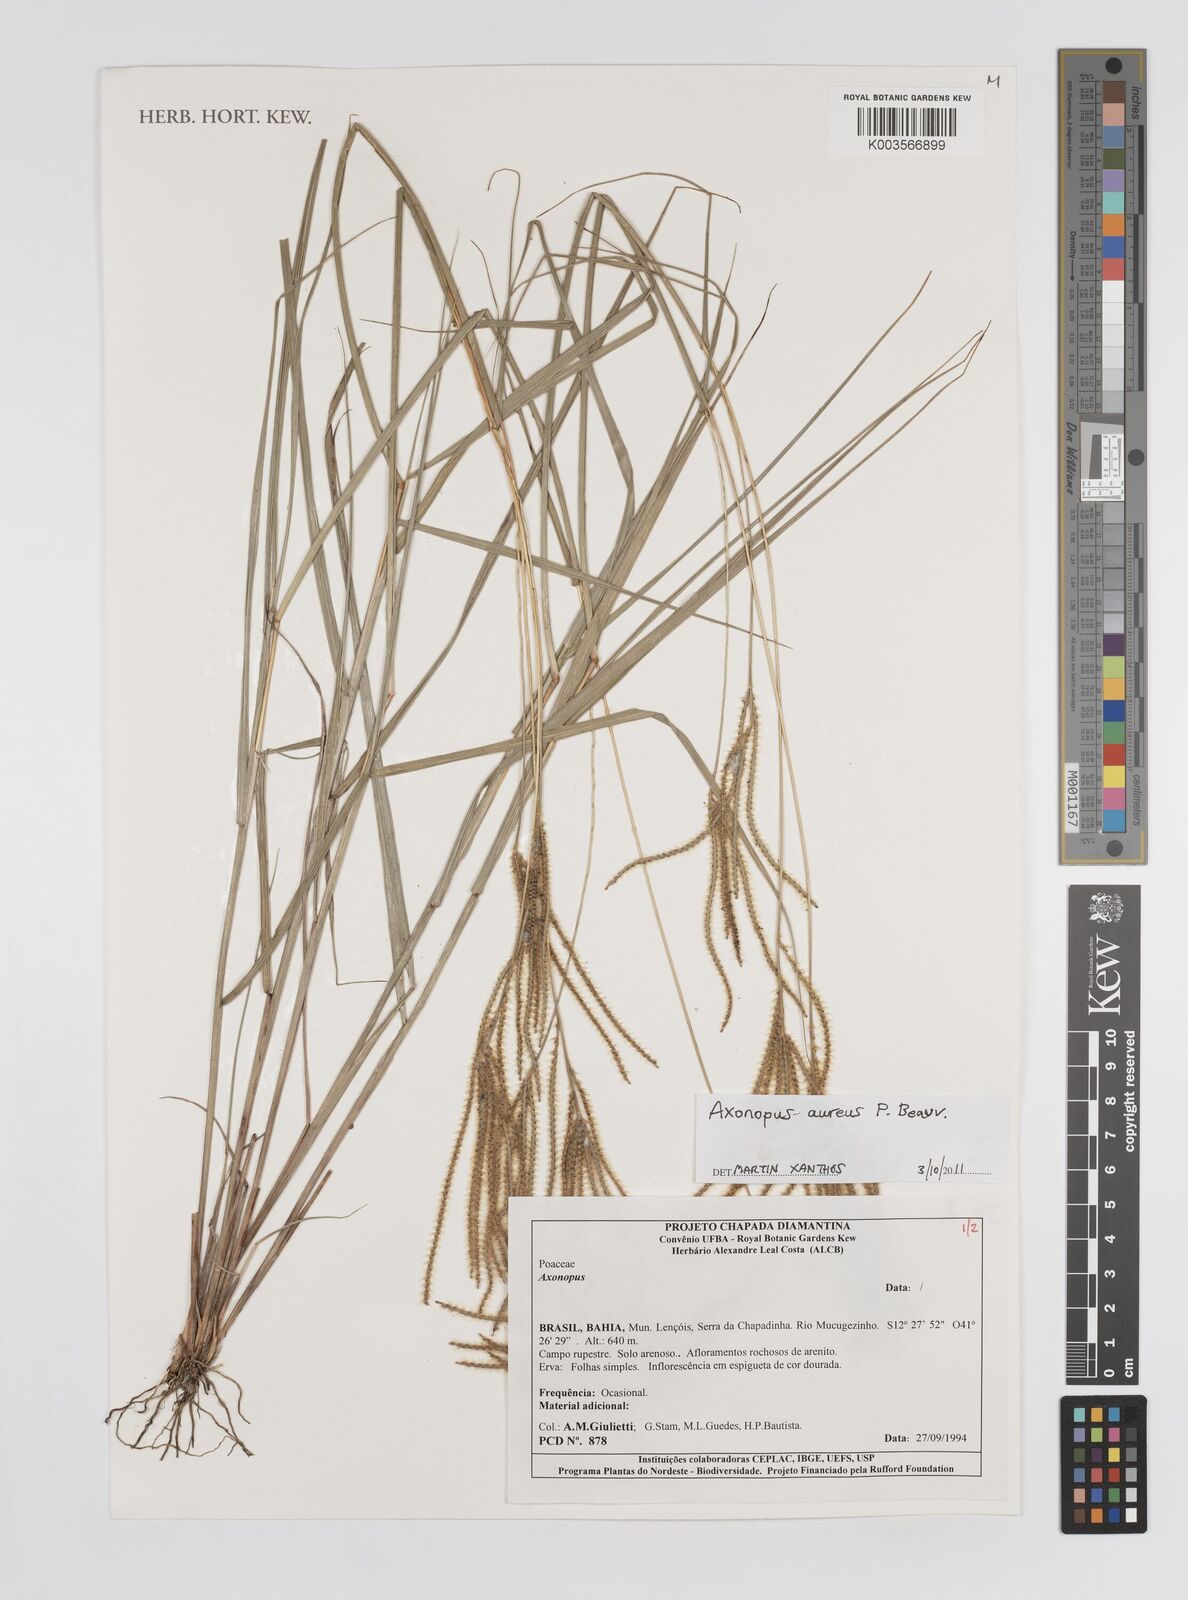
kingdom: Plantae
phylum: Tracheophyta
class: Liliopsida
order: Poales
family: Poaceae
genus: Axonopus
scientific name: Axonopus aureus
